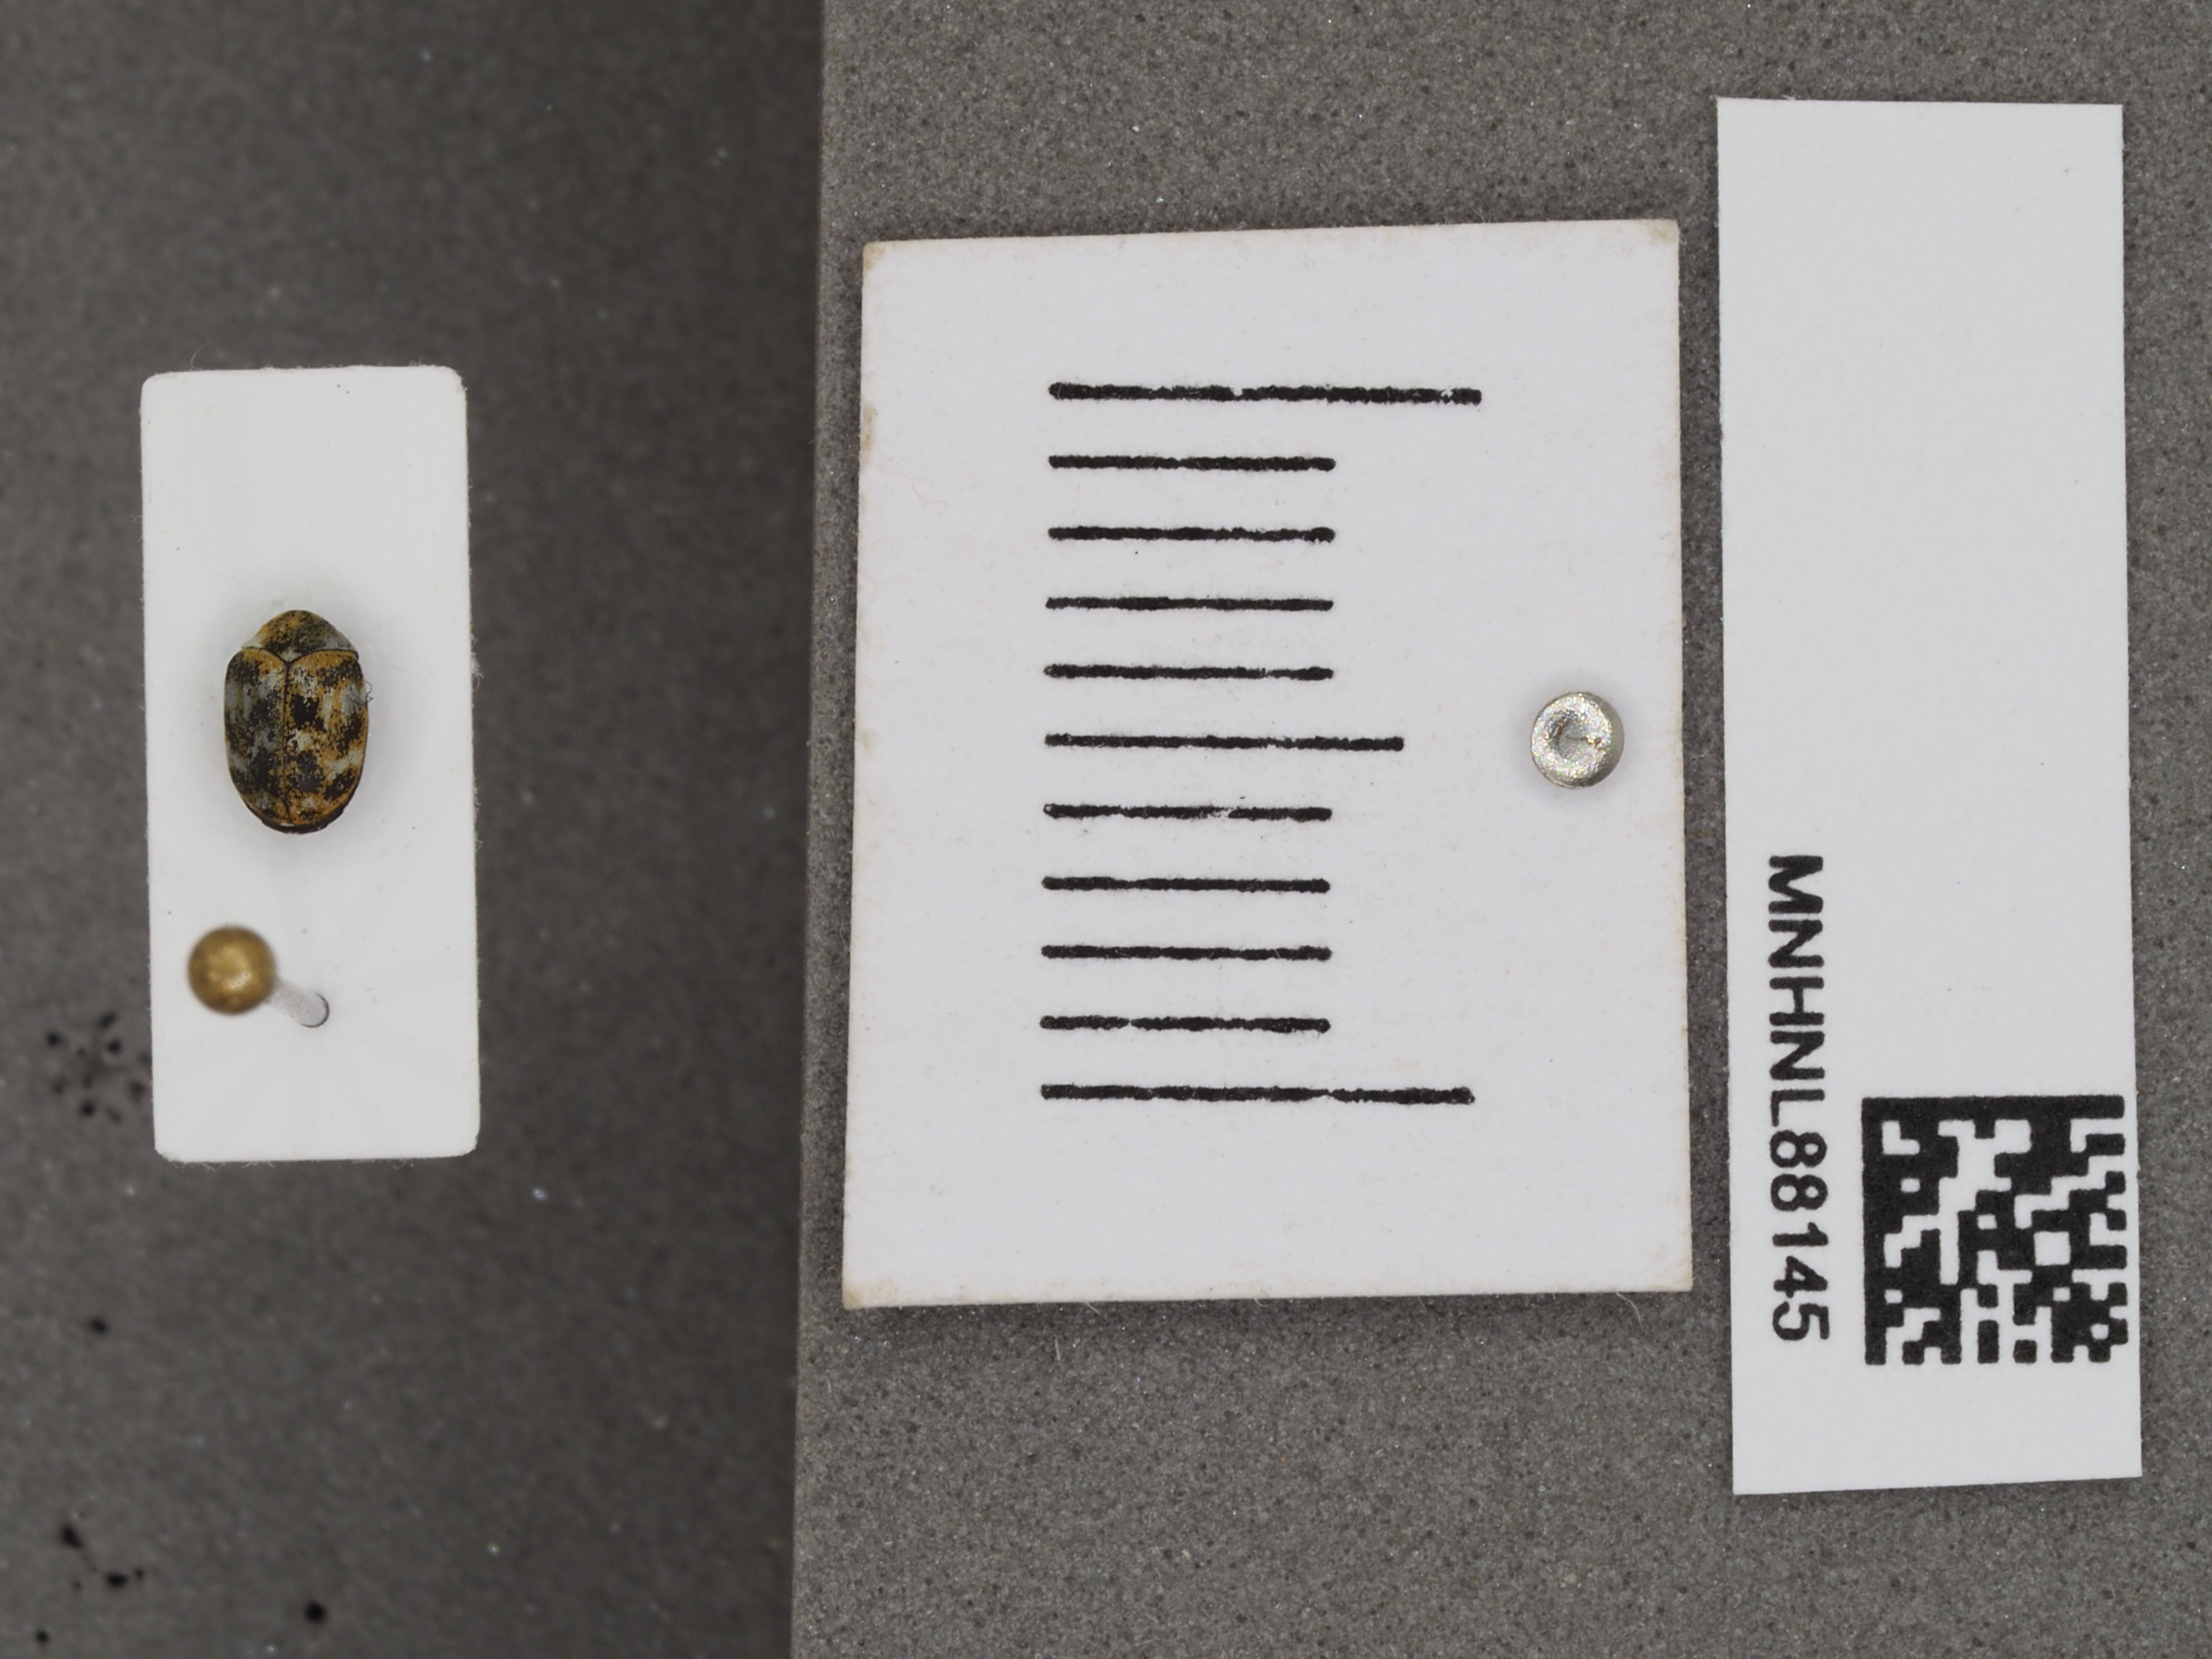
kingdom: Animalia
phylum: Arthropoda
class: Insecta
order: Coleoptera
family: Dermestidae
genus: Anthrenus
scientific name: Anthrenus verbasci
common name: Varied carpet beetle
